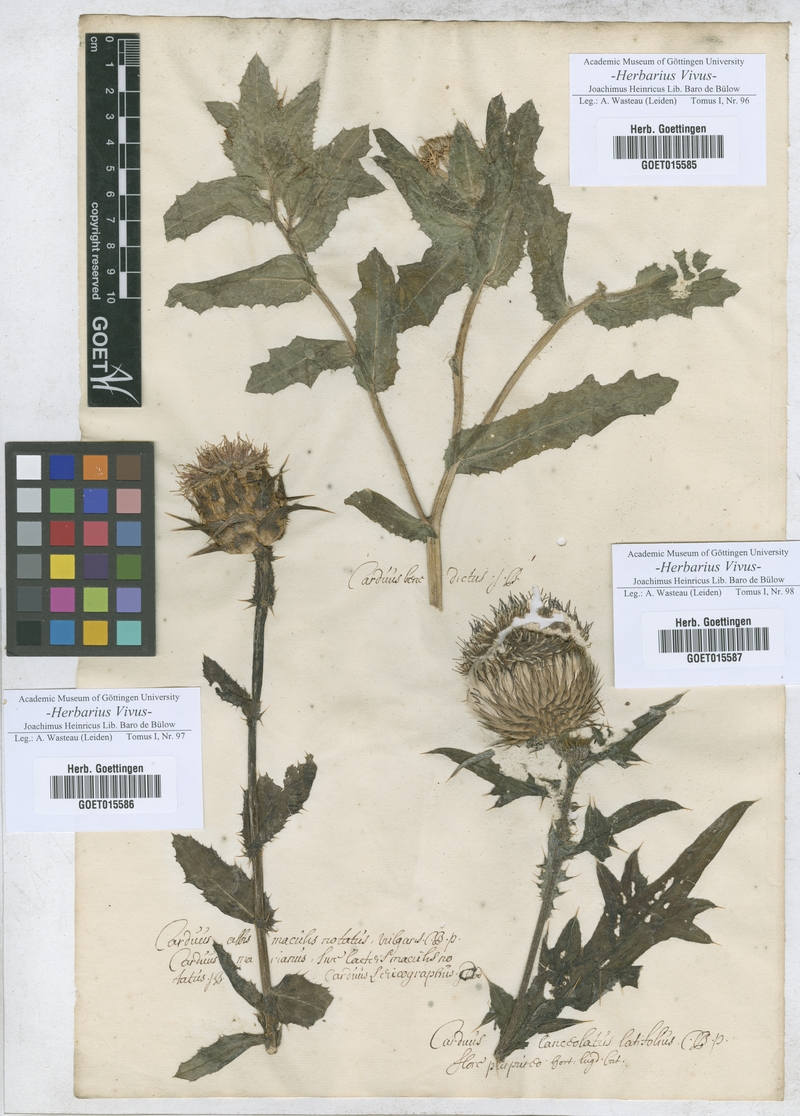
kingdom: Plantae
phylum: Tracheophyta
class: Magnoliopsida
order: Asterales
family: Asteraceae
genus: Centaurea
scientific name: Centaurea benedicta
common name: Blessed thistle
